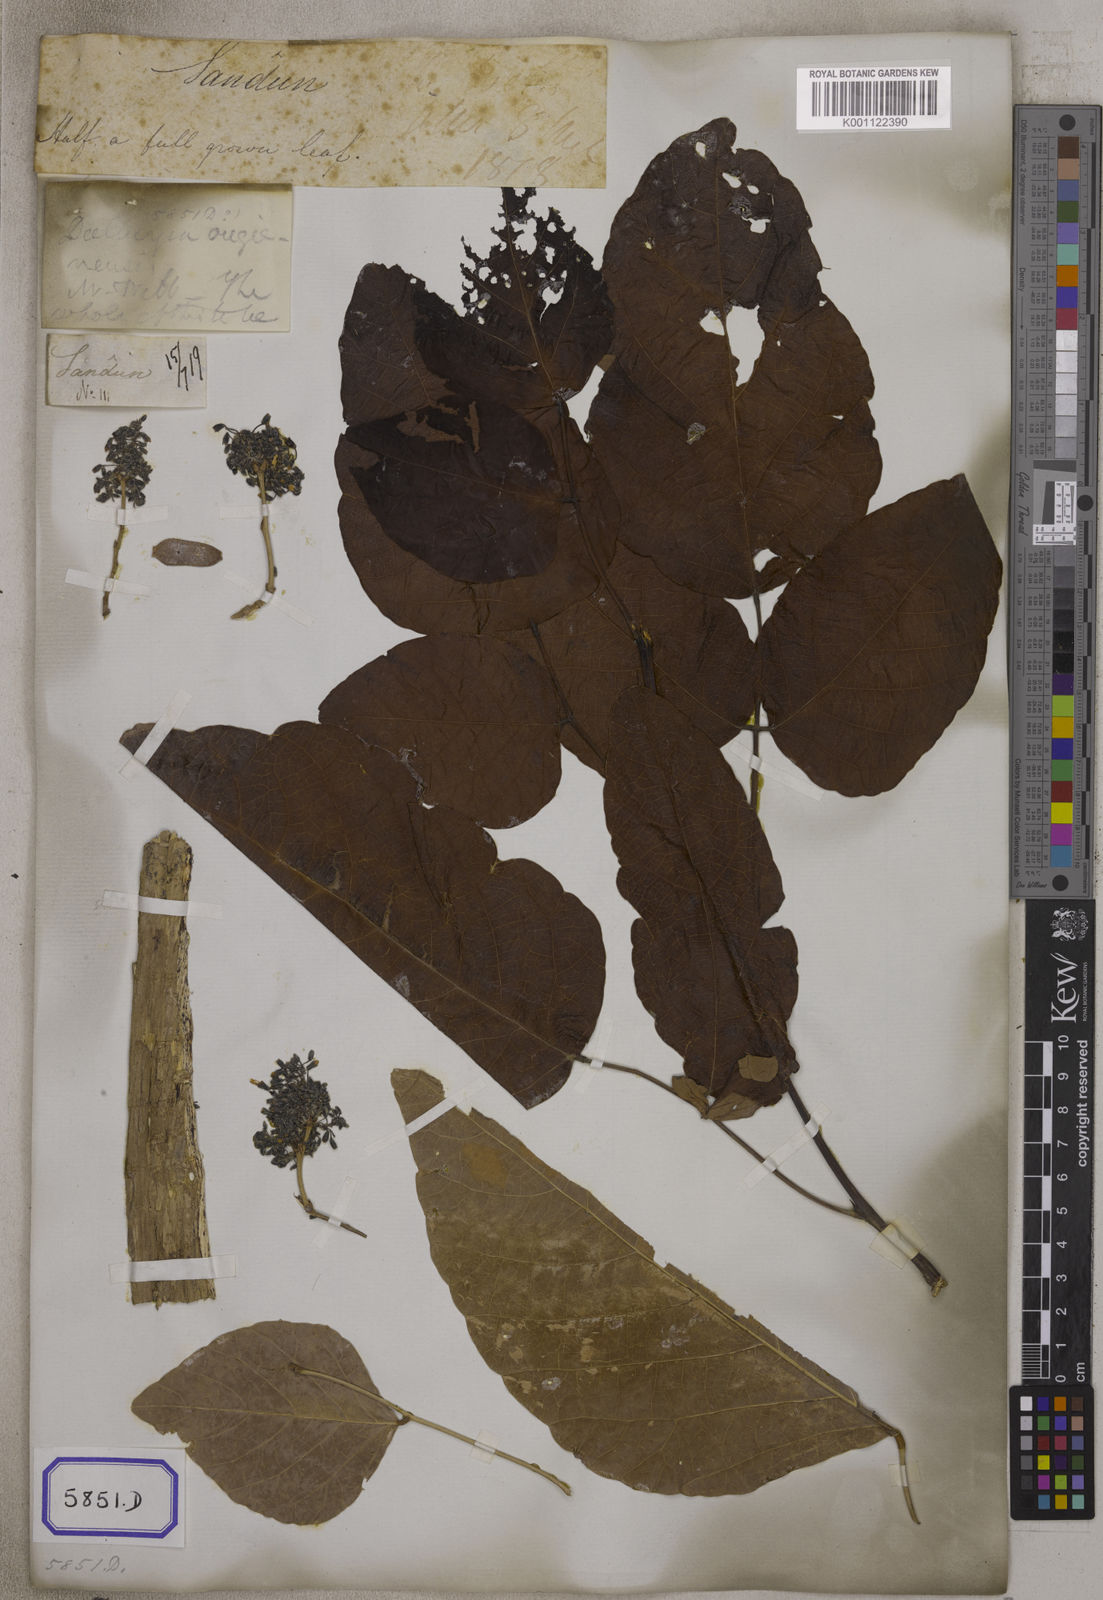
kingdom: Plantae
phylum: Tracheophyta
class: Magnoliopsida
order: Fabales
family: Fabaceae
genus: Ougeinia
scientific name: Ougeinia oojeinensis
